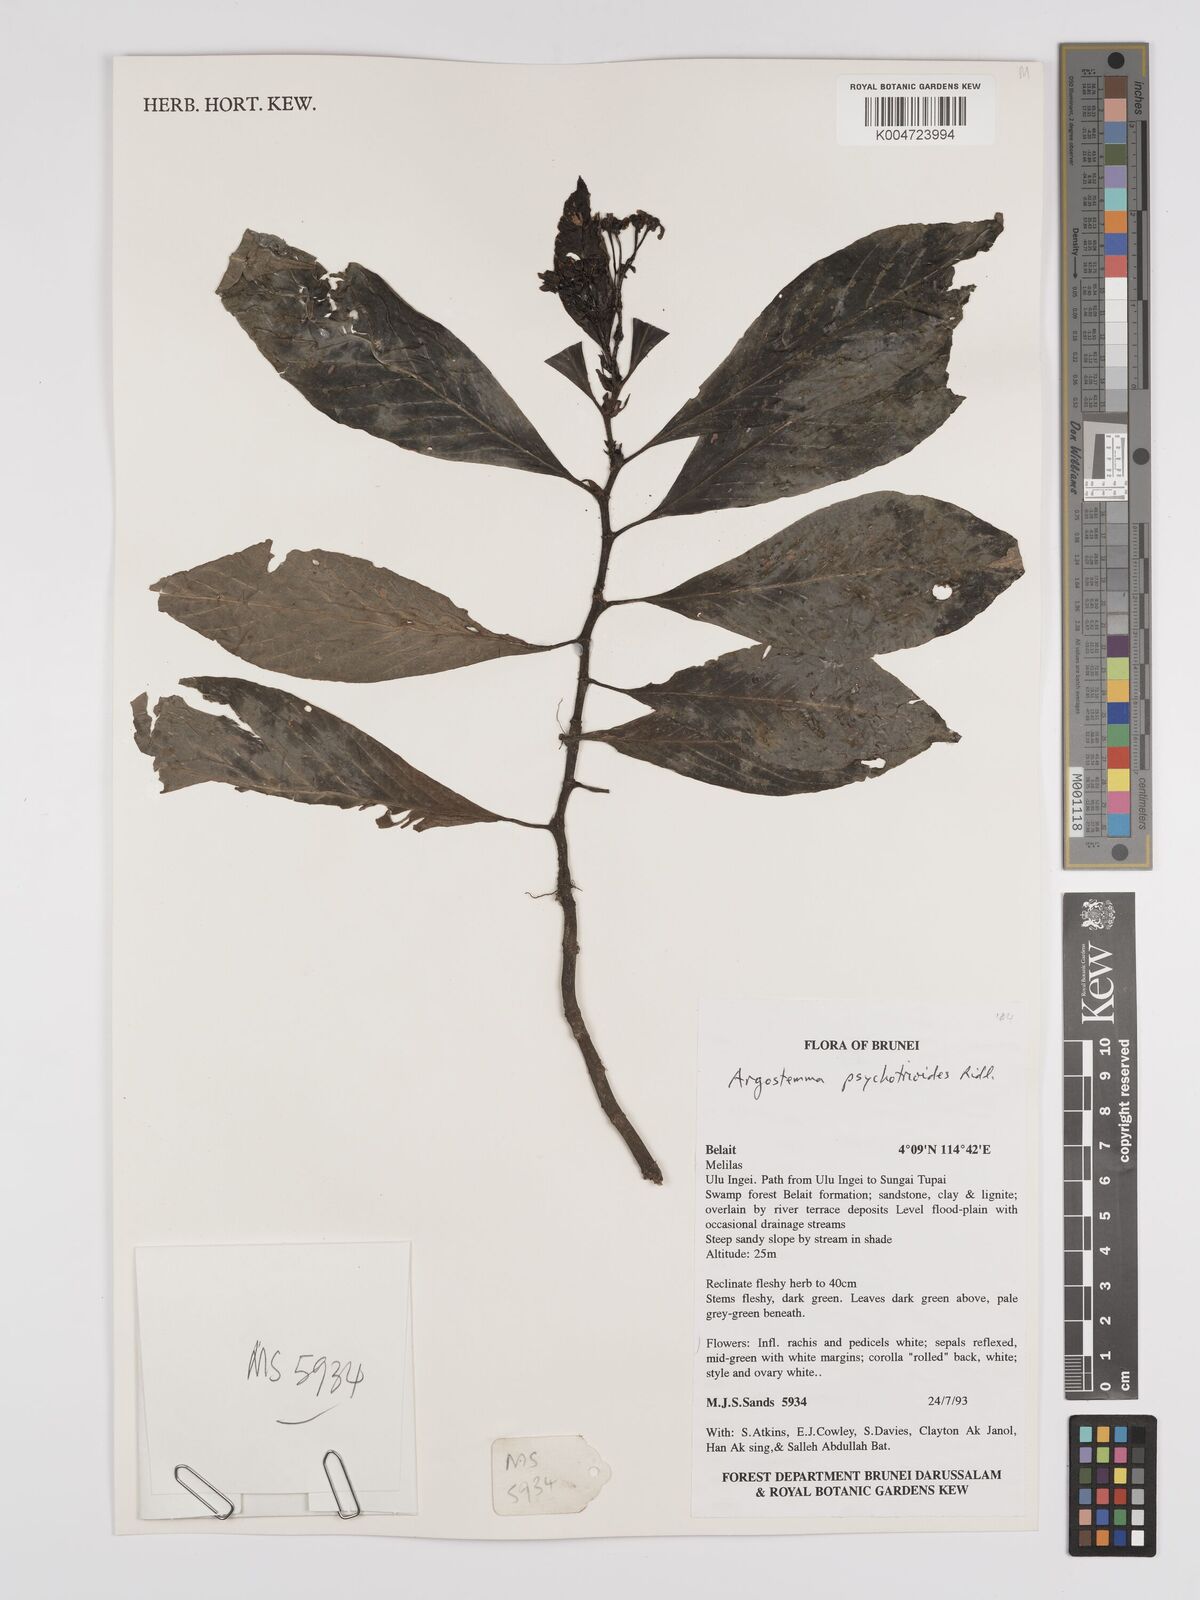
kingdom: Plantae
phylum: Tracheophyta
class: Magnoliopsida
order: Gentianales
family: Rubiaceae
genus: Argostemma
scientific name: Argostemma psychotrioides
